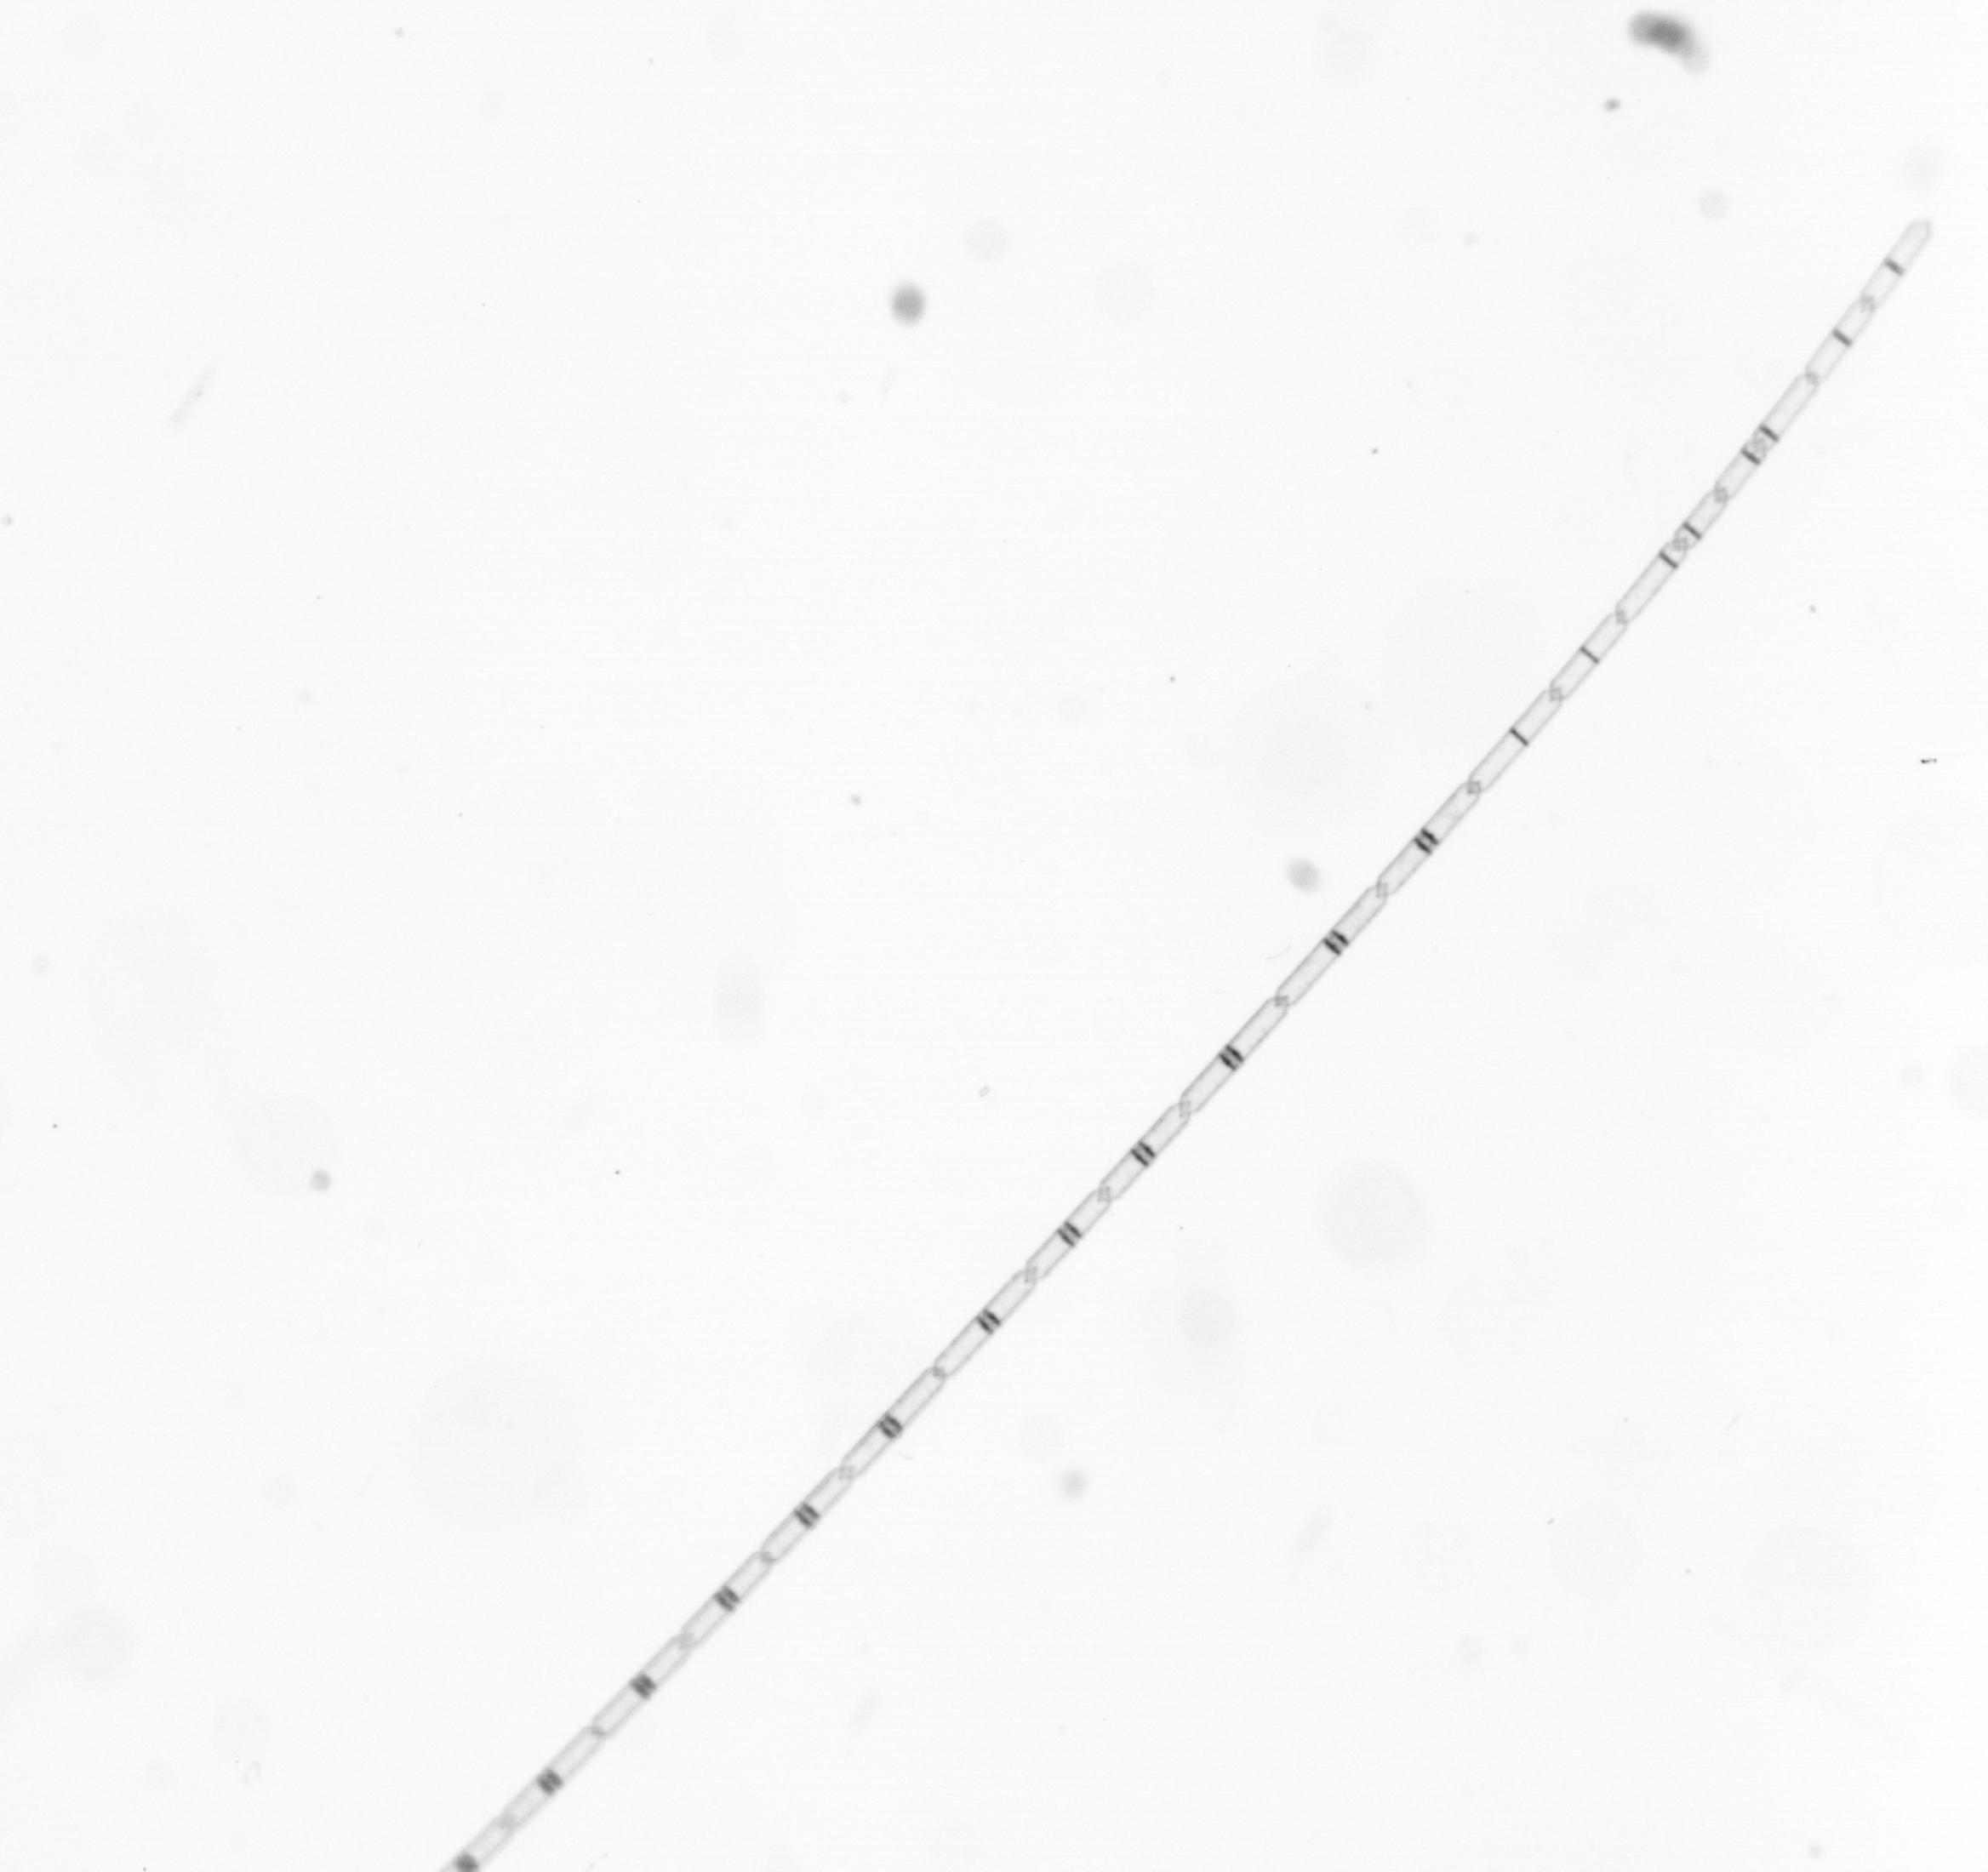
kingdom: Chromista
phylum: Ochrophyta
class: Bacillariophyceae
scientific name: Bacillariophyceae
